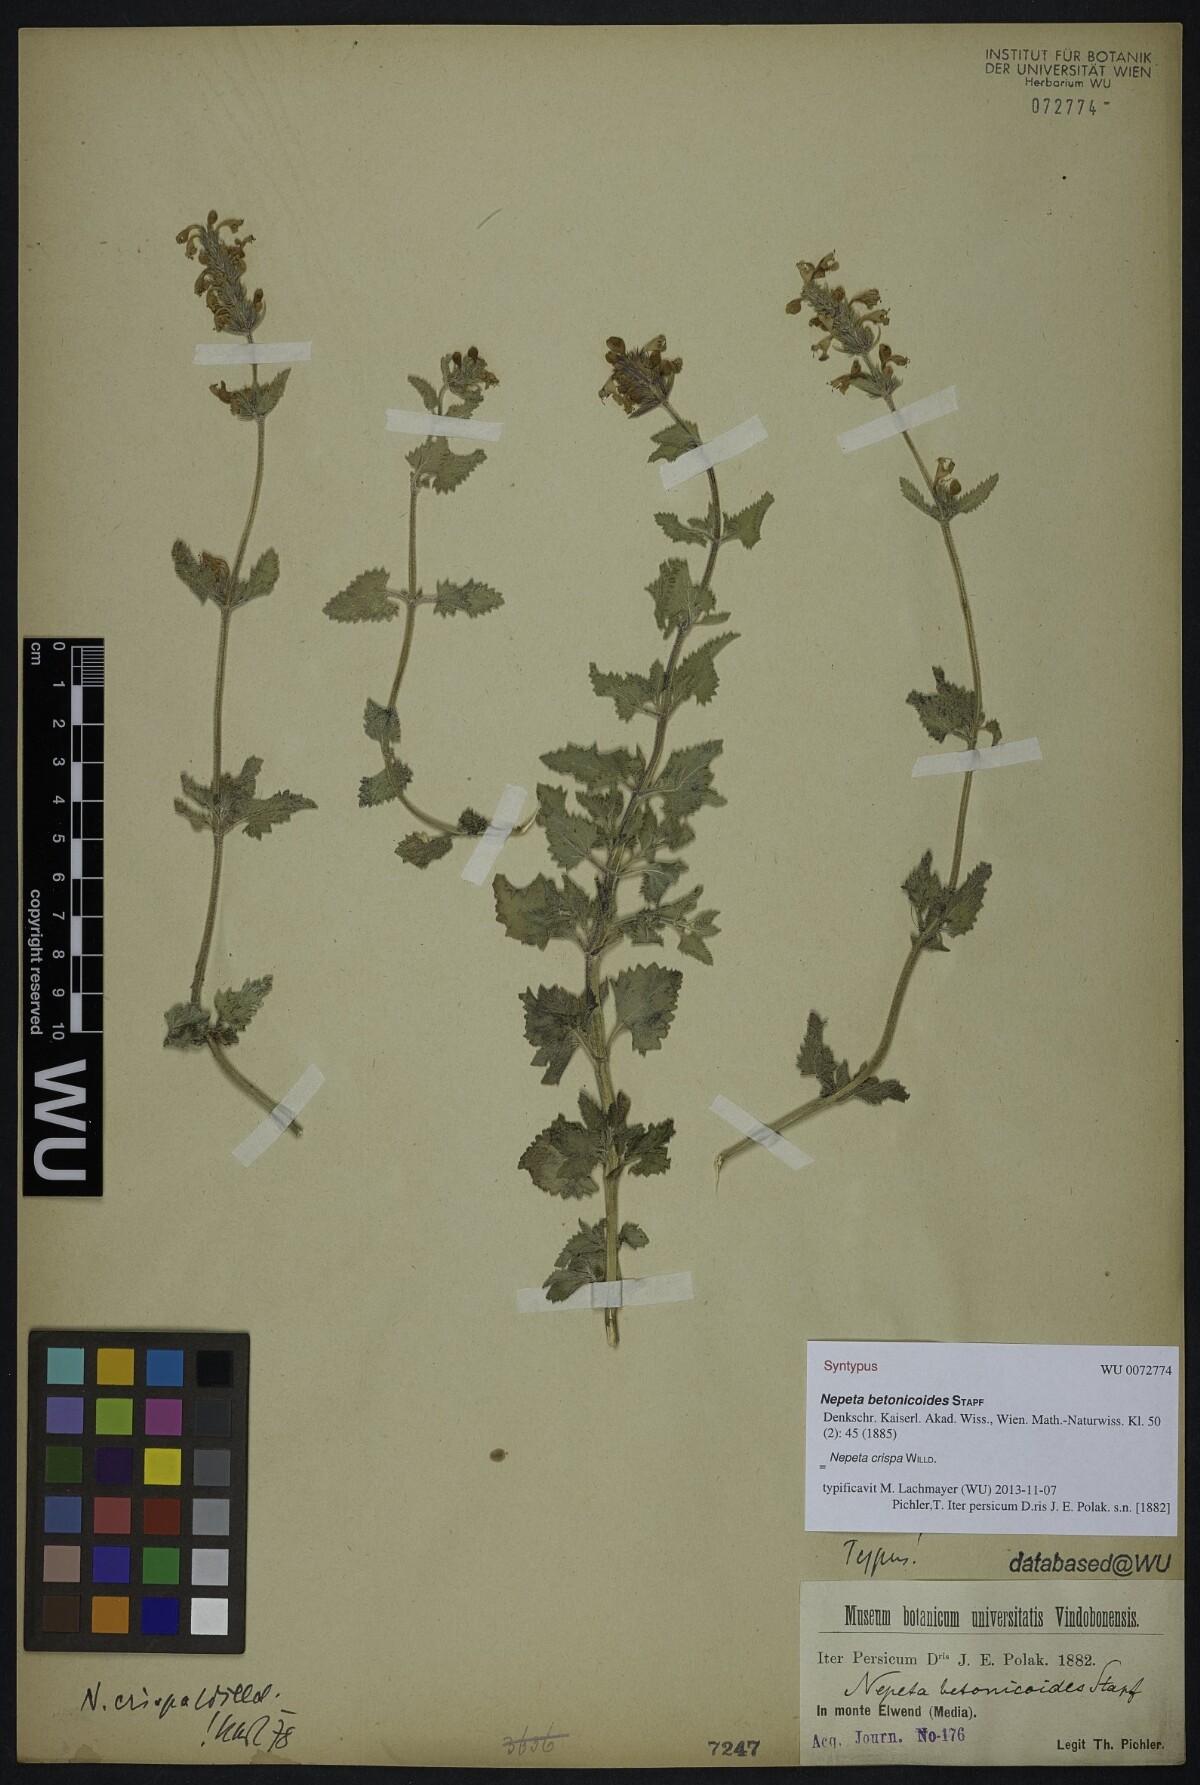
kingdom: Plantae
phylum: Tracheophyta
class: Magnoliopsida
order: Lamiales
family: Lamiaceae
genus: Nepeta
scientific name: Nepeta crispa
